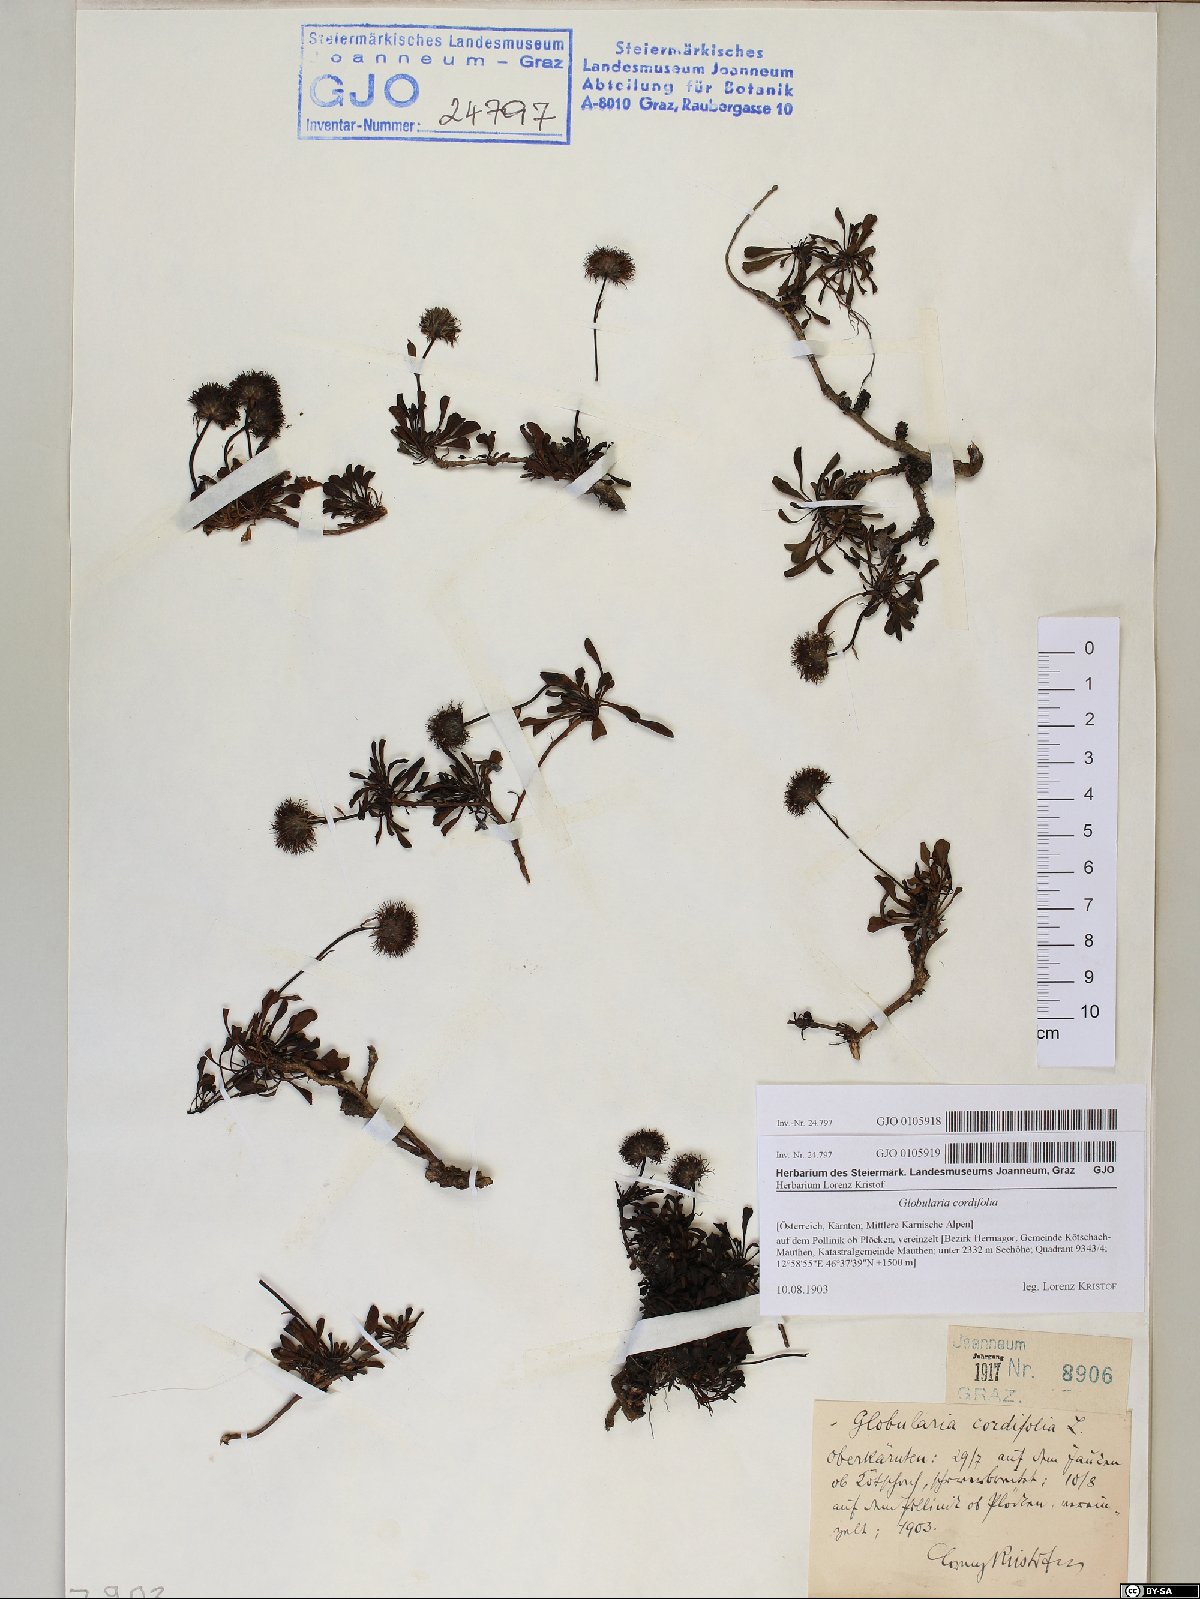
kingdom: Plantae
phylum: Tracheophyta
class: Magnoliopsida
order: Lamiales
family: Plantaginaceae
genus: Globularia
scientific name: Globularia cordifolia
